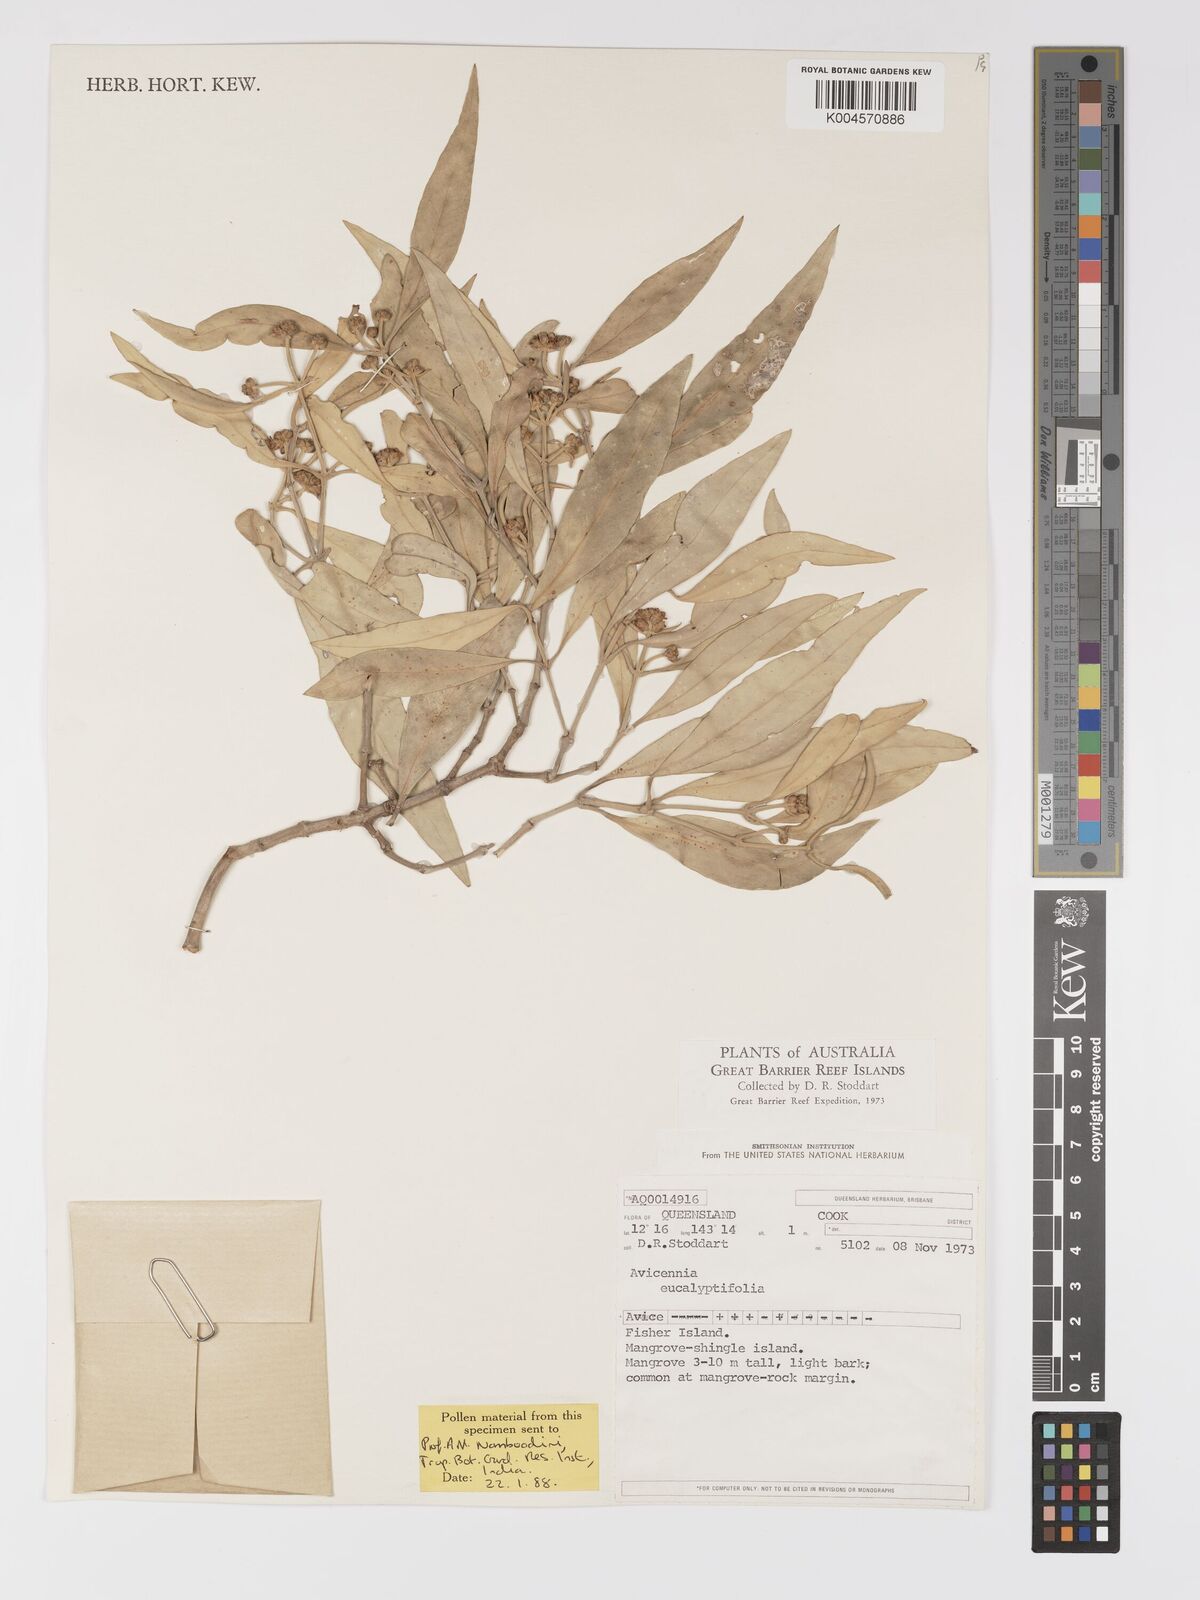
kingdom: Plantae
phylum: Tracheophyta
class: Magnoliopsida
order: Lamiales
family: Acanthaceae
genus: Avicennia
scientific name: Avicennia marina
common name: Gray mangrove
